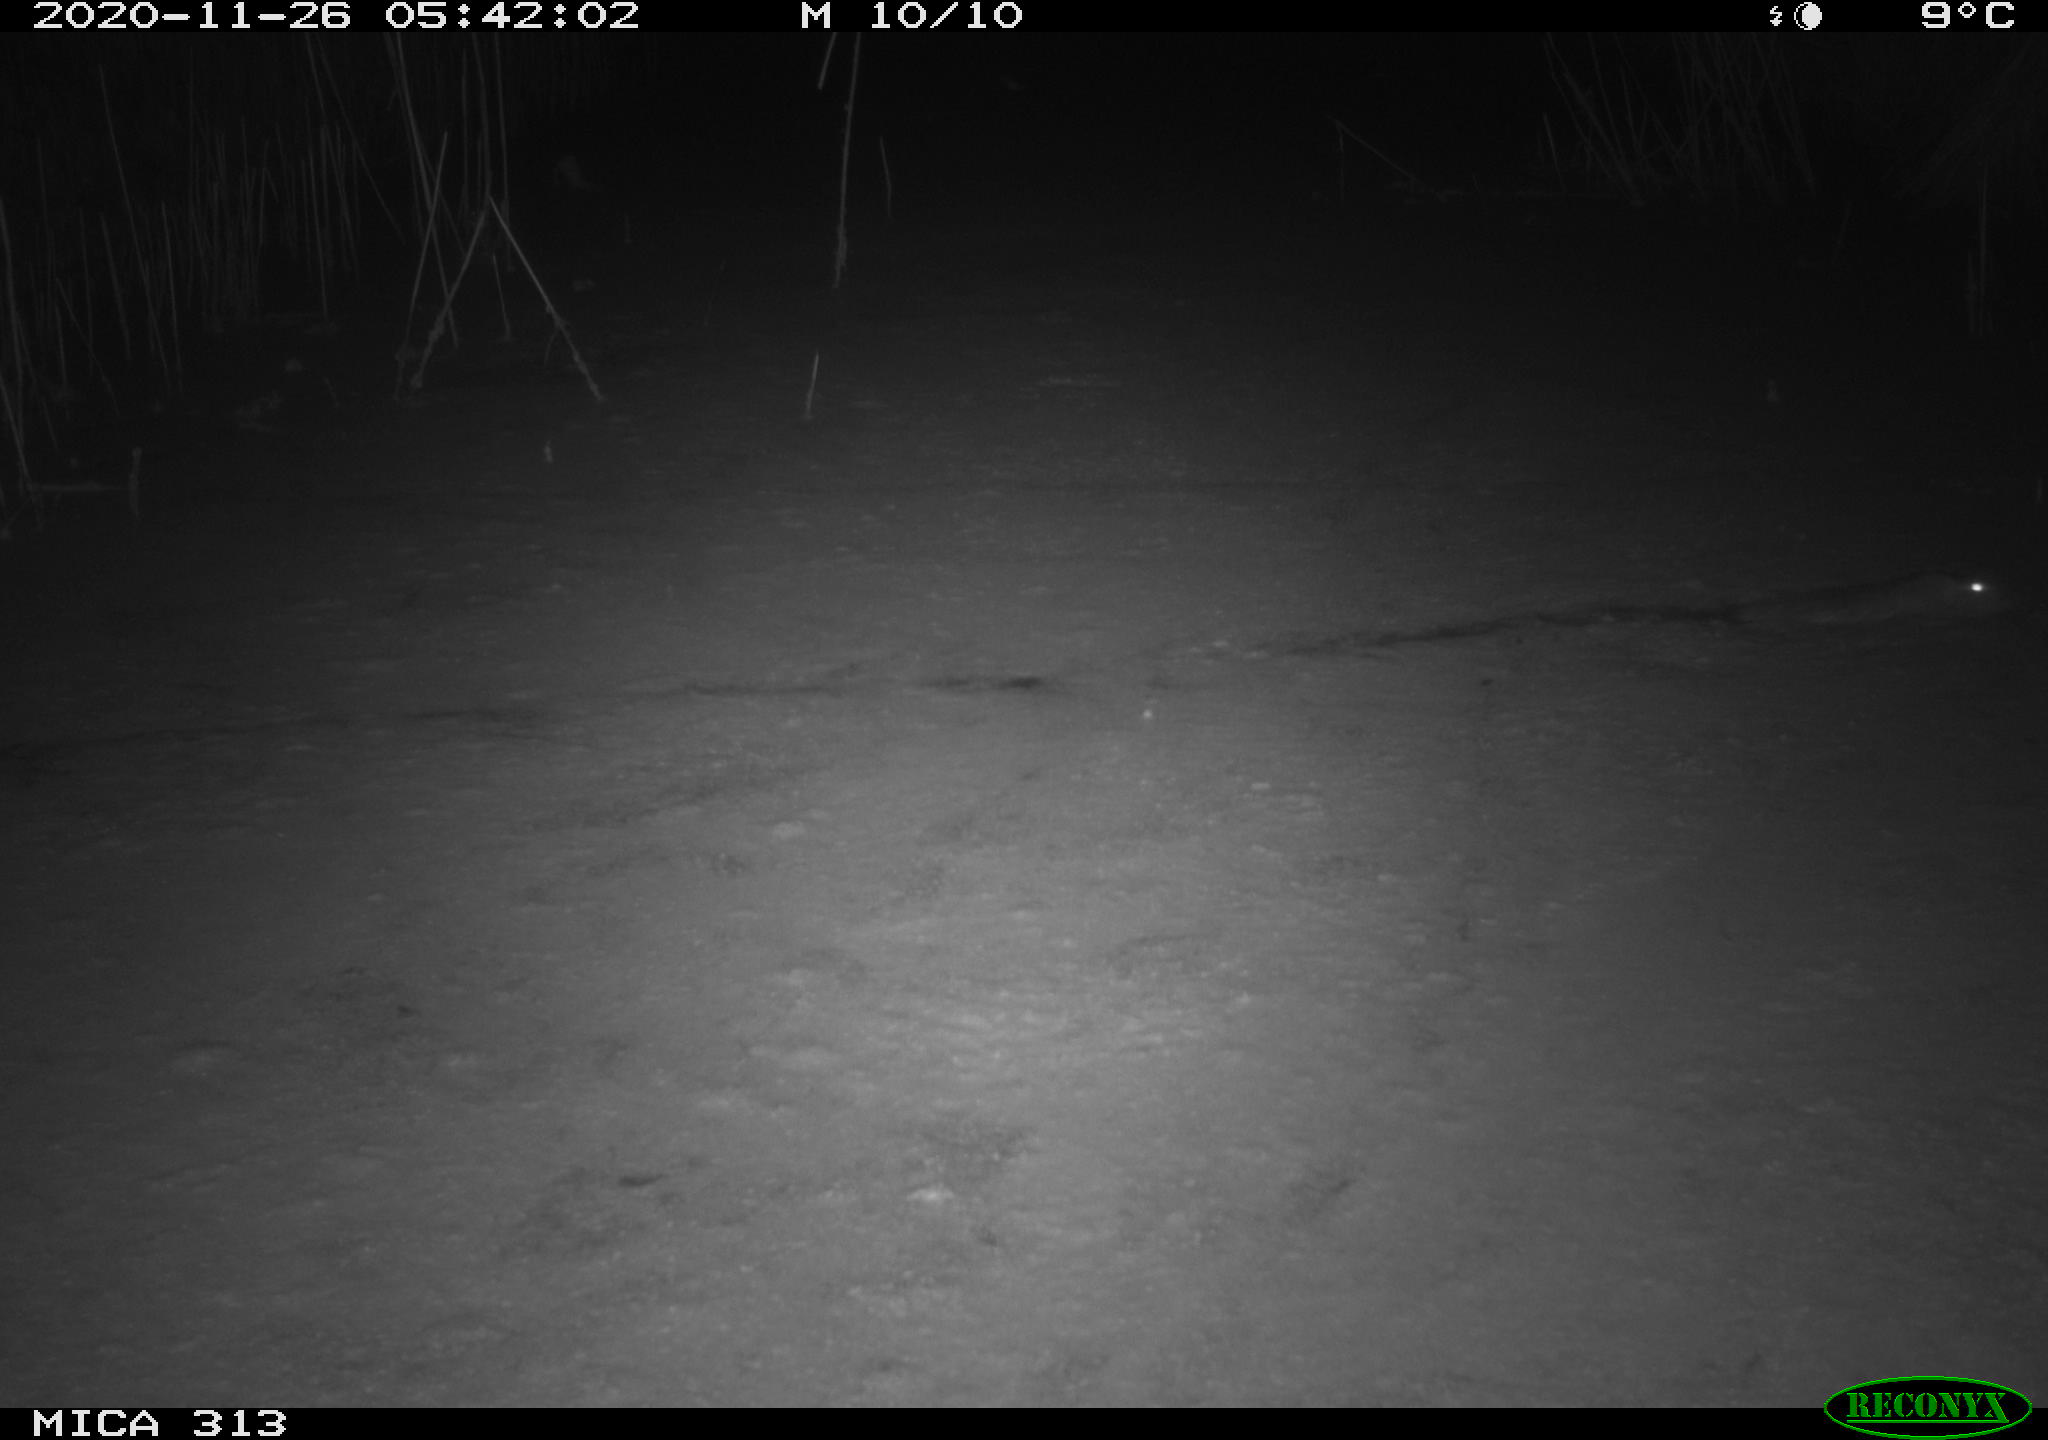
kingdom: Animalia
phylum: Chordata
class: Mammalia
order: Rodentia
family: Muridae
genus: Rattus
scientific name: Rattus norvegicus
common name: Brown rat
